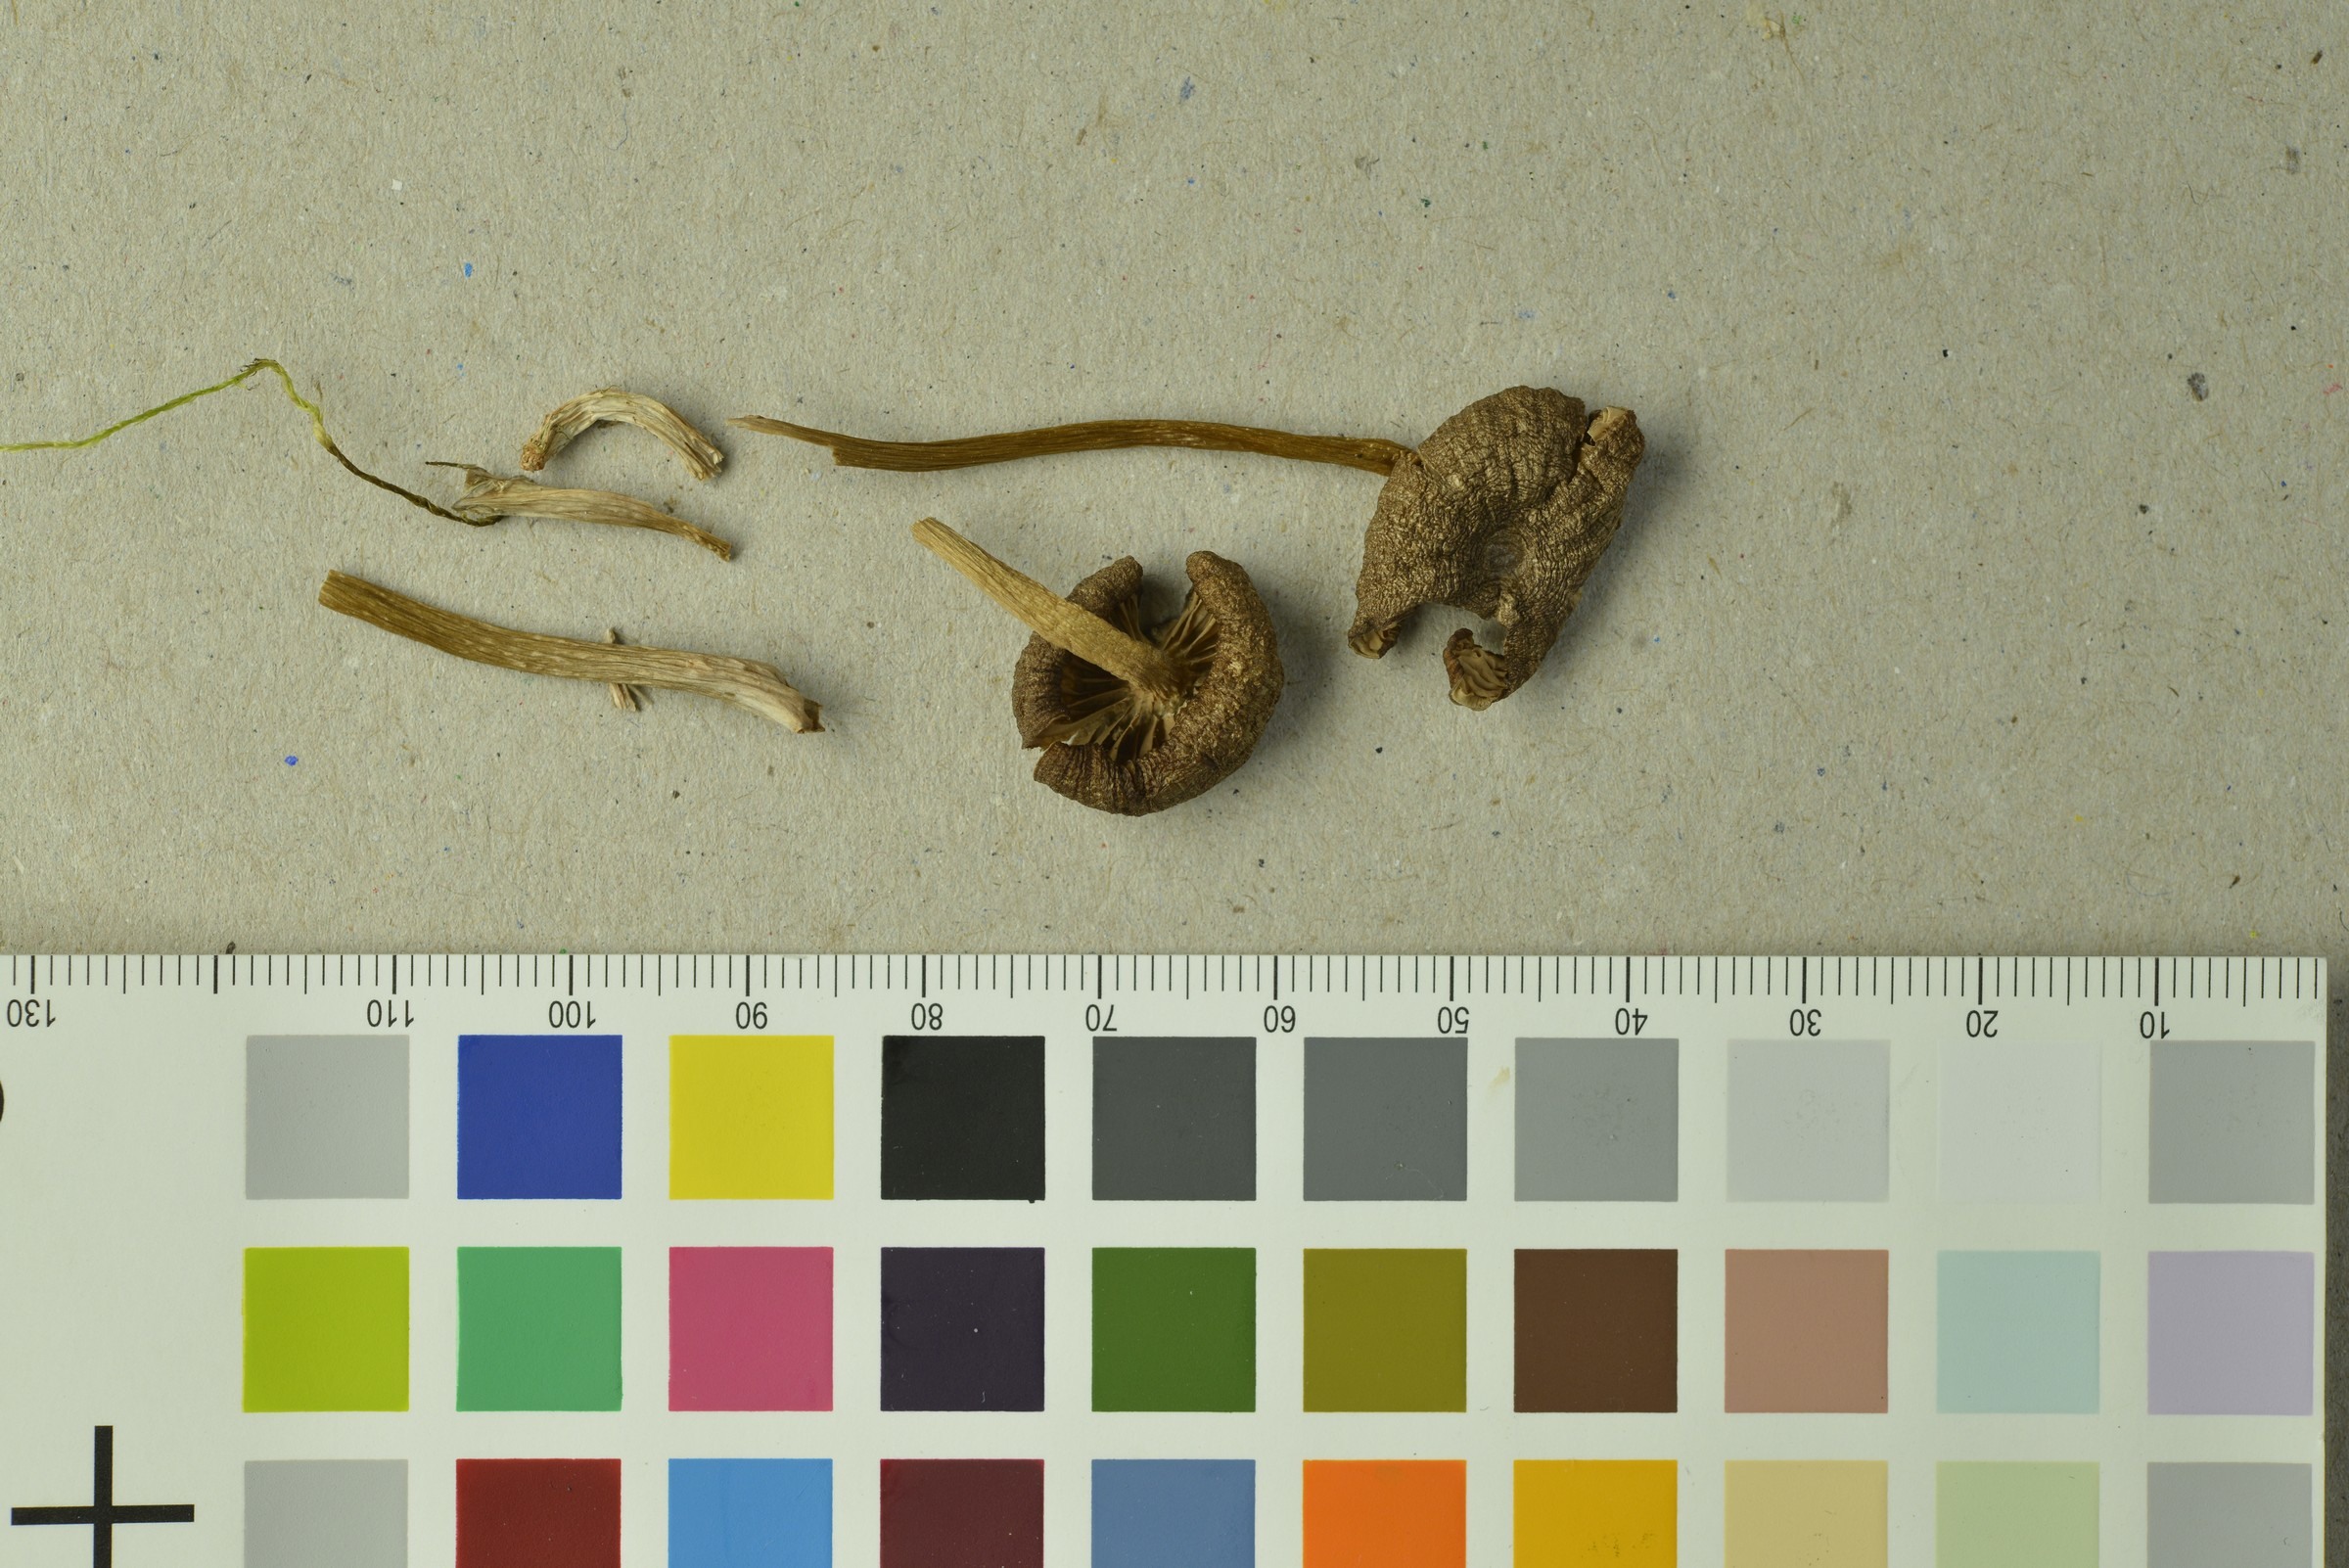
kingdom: Fungi
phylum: Basidiomycota
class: Agaricomycetes
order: Agaricales
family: Entolomataceae
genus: Entoloma
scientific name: Entoloma formosum
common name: Pretty pinkgill
